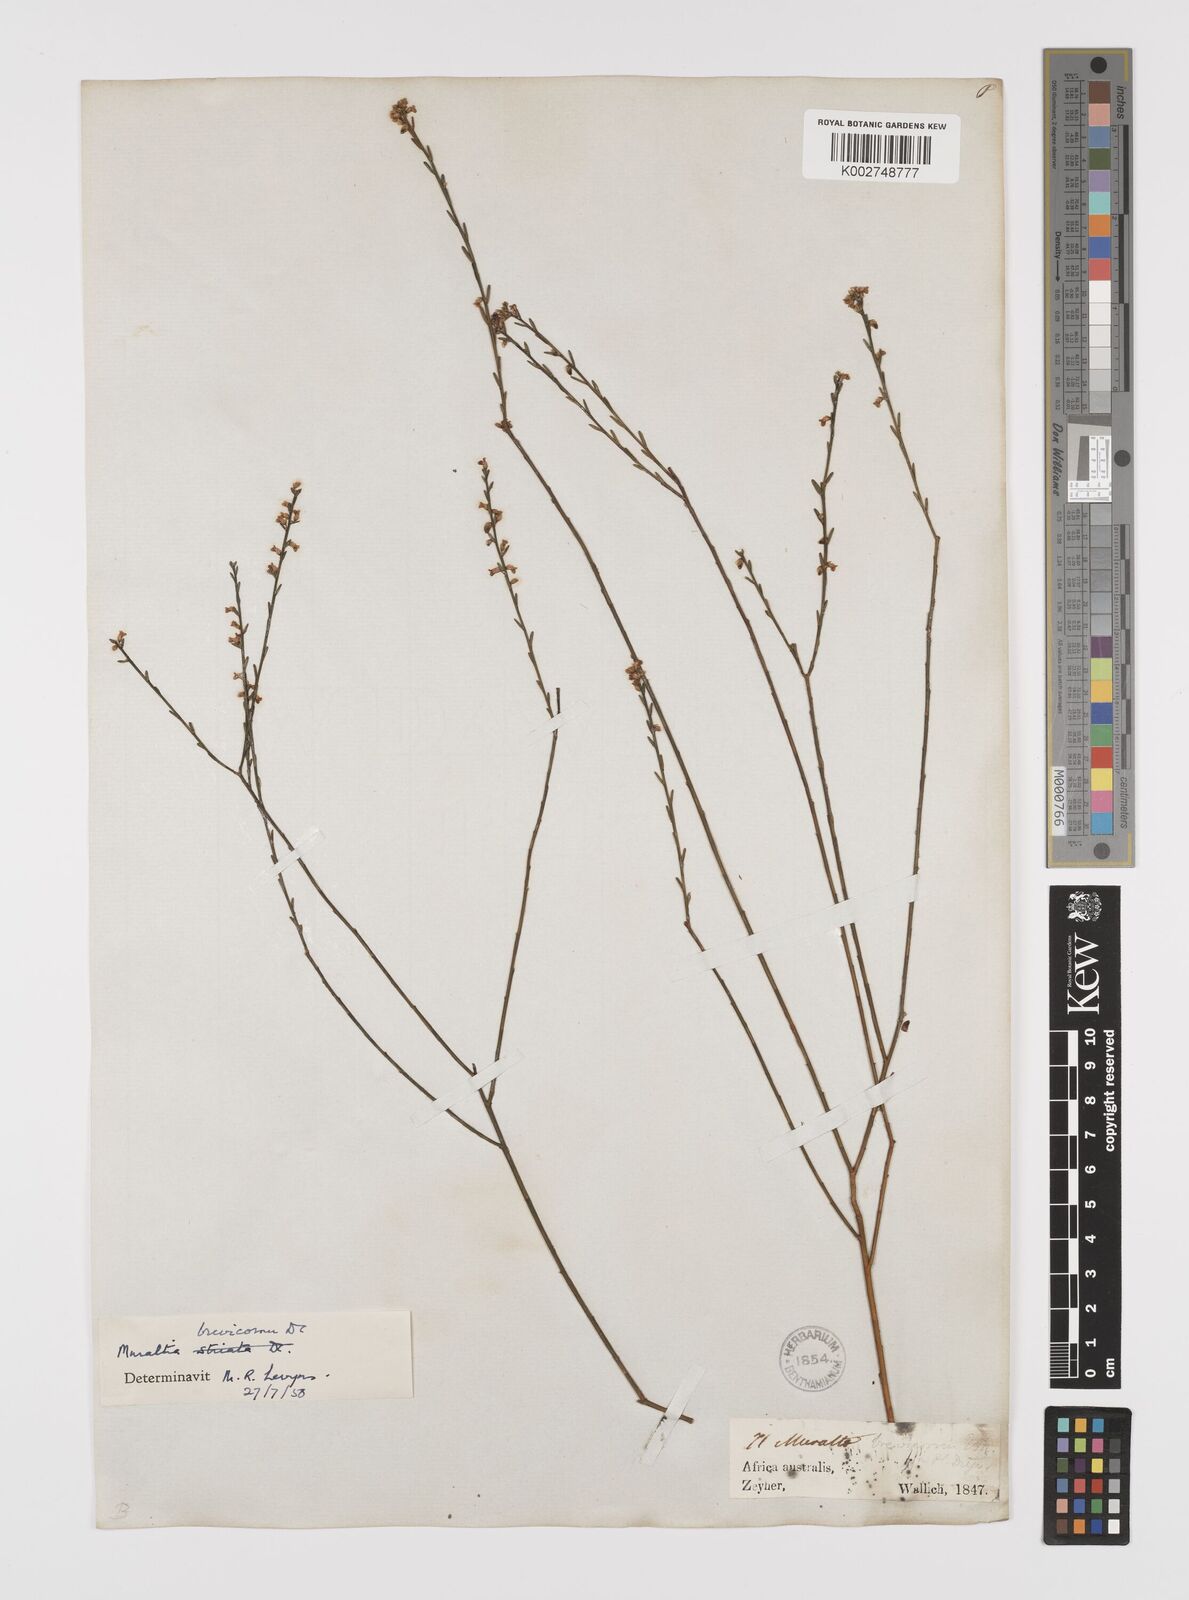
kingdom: Plantae
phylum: Tracheophyta
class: Magnoliopsida
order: Fabales
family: Polygalaceae
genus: Muraltia
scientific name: Muraltia striata
